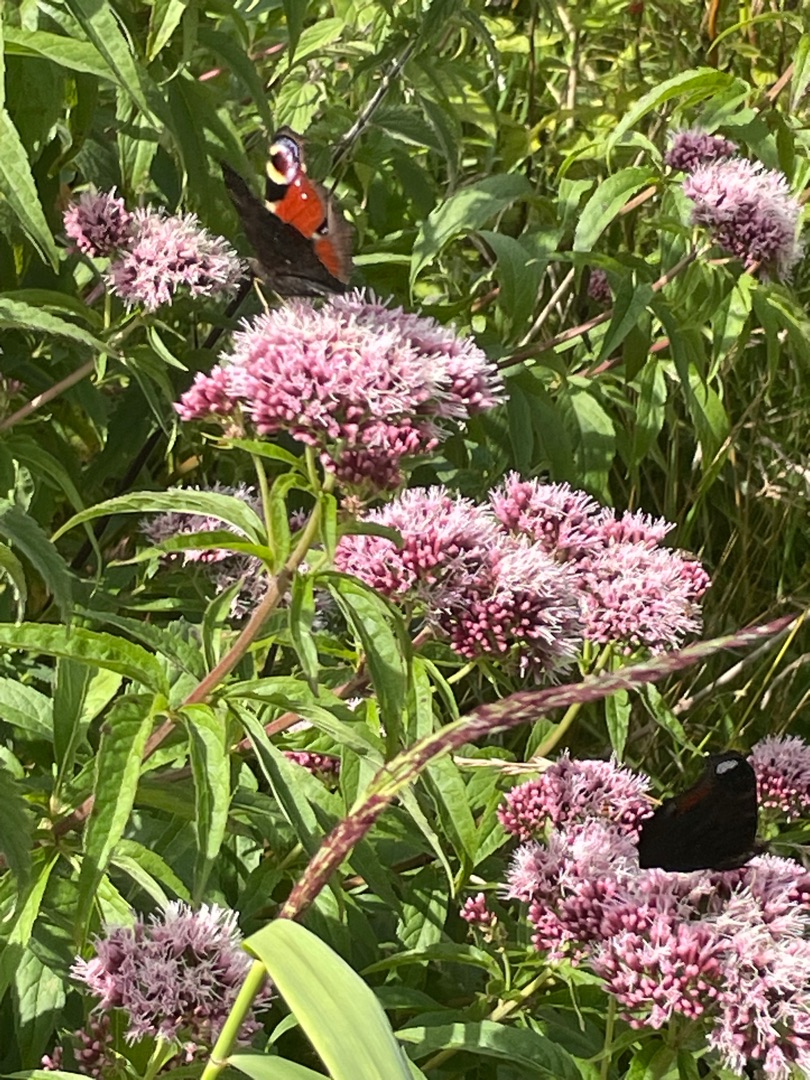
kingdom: Animalia
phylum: Arthropoda
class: Insecta
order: Lepidoptera
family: Nymphalidae
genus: Aglais
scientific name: Aglais io
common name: Dagpåfugleøje
